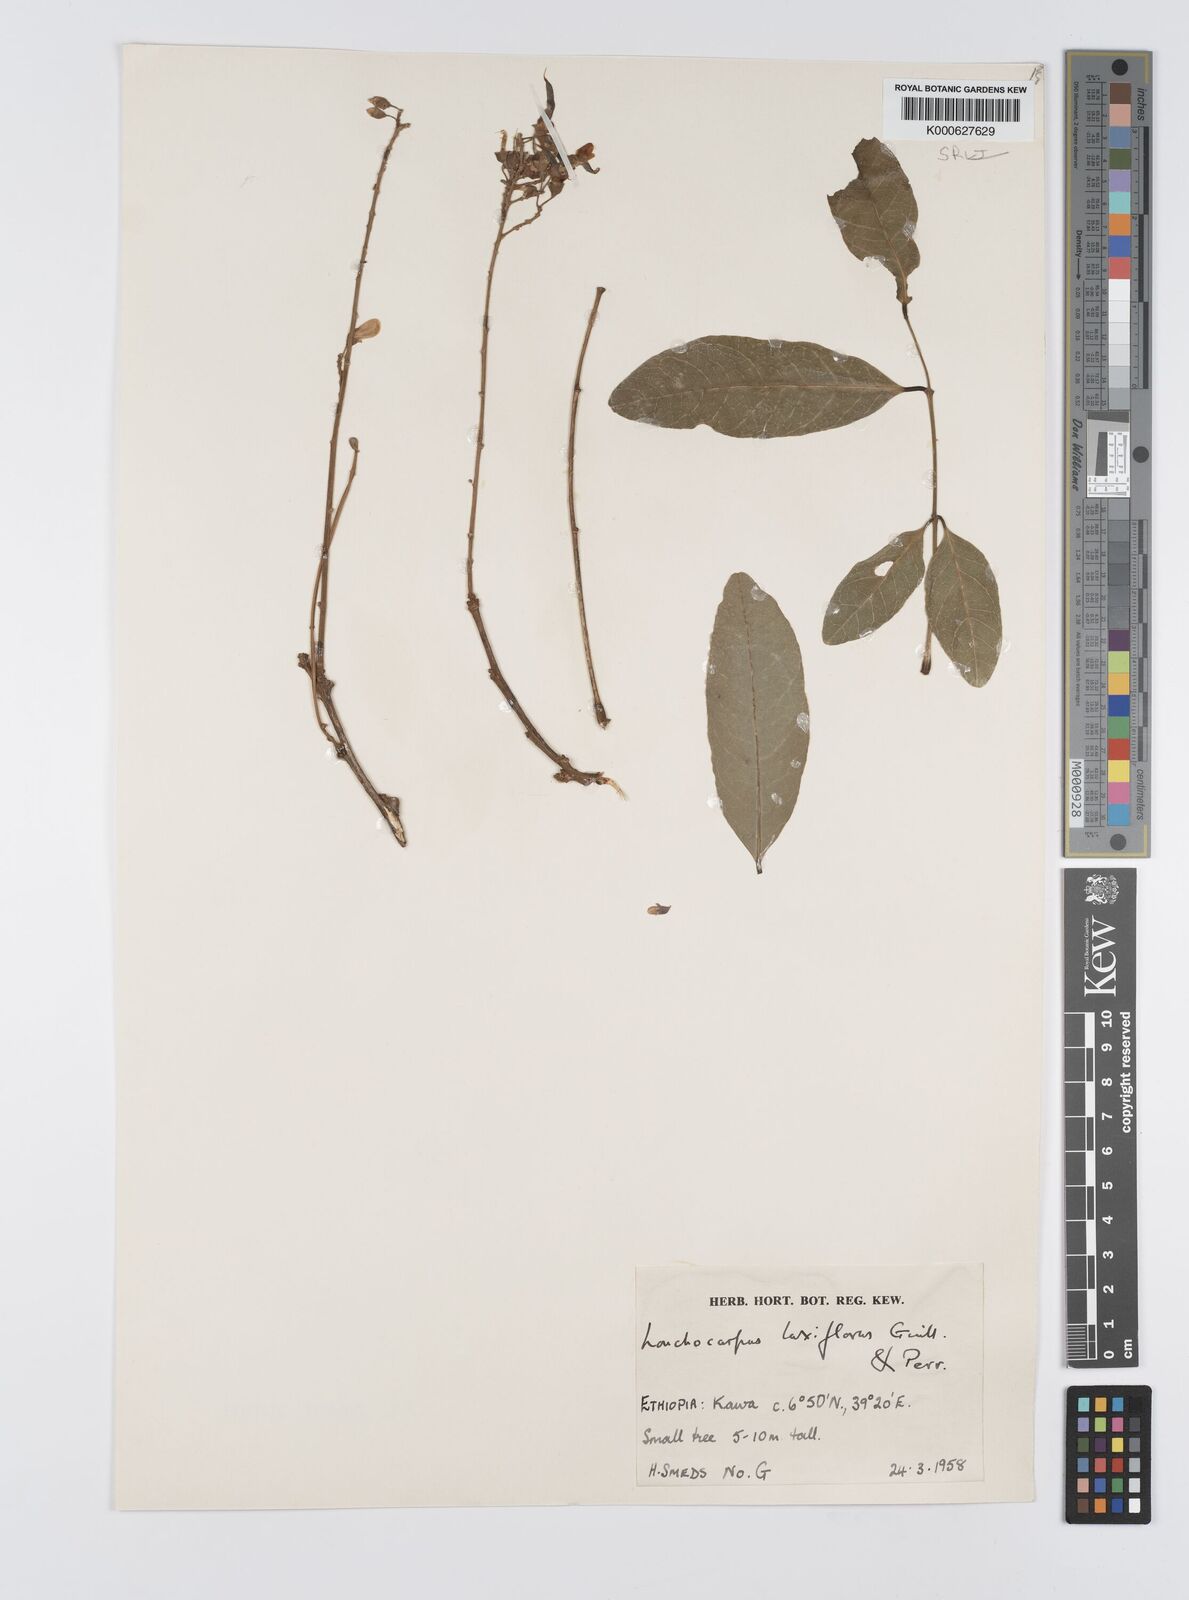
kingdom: Plantae
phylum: Tracheophyta
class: Magnoliopsida
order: Fabales
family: Fabaceae
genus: Philenoptera
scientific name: Philenoptera laxiflora
